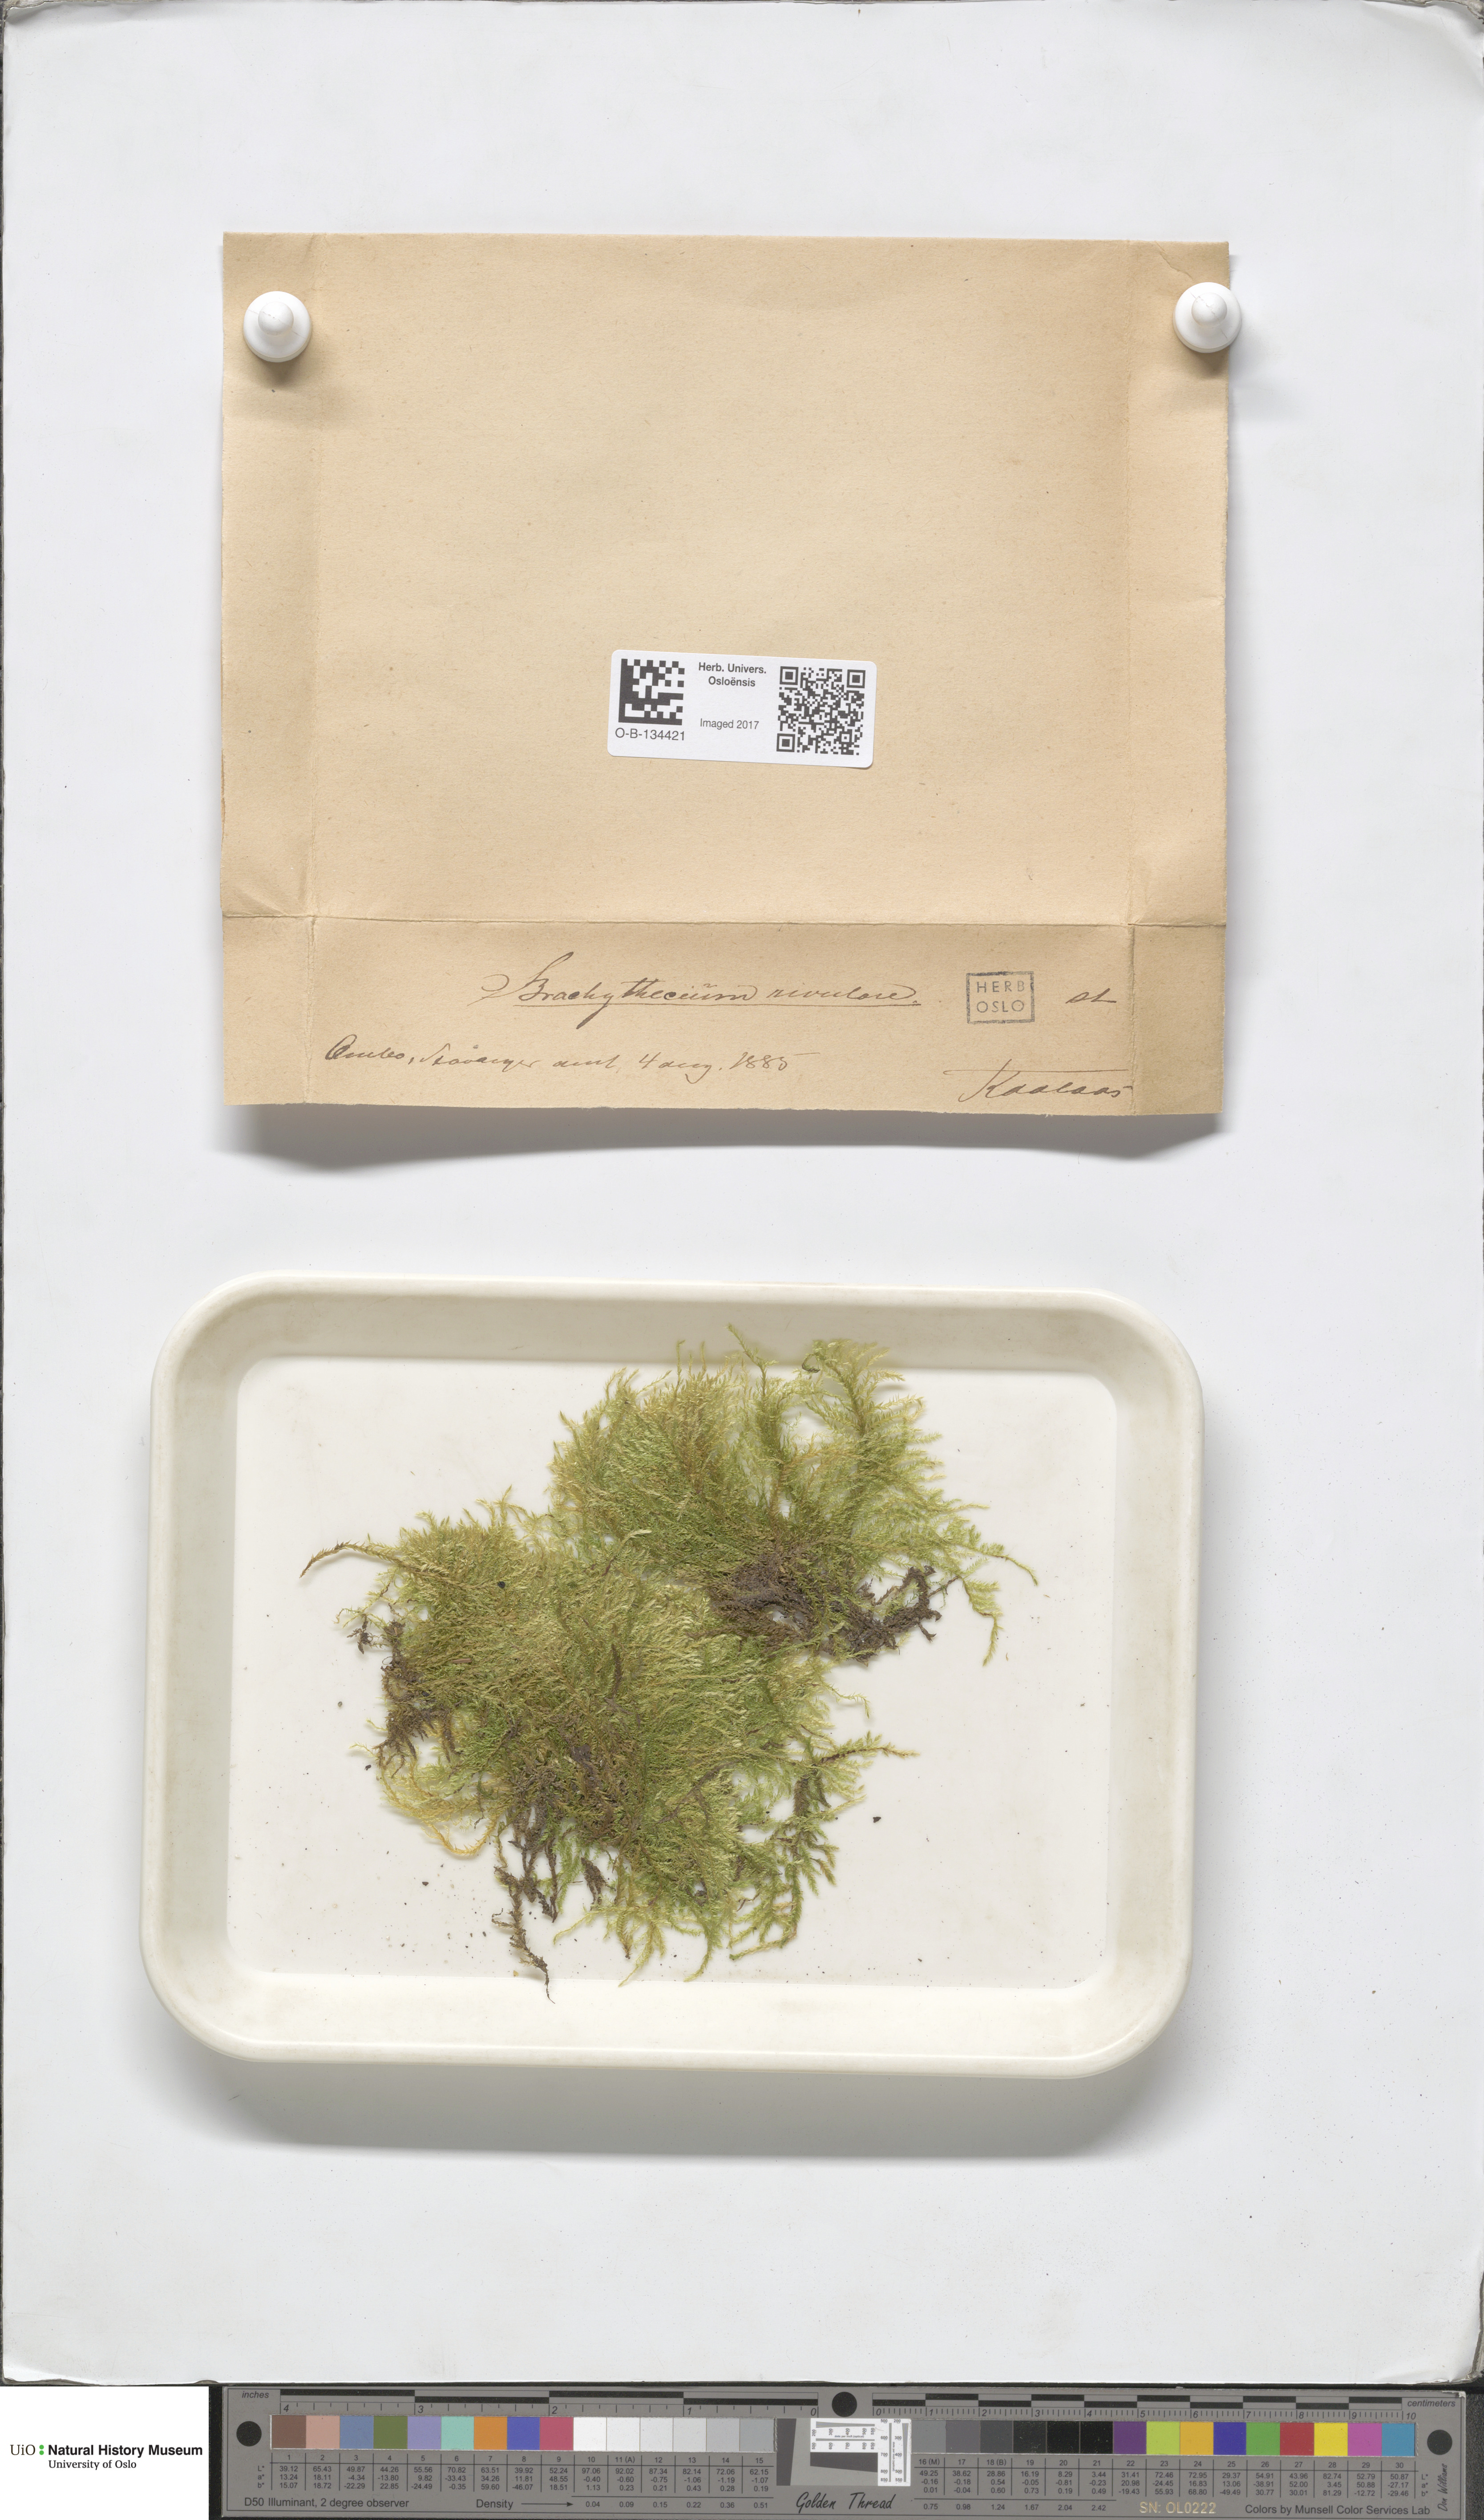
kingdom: Plantae
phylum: Bryophyta
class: Bryopsida
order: Hypnales
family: Brachytheciaceae
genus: Brachythecium
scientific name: Brachythecium rivulare
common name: River ragged moss
